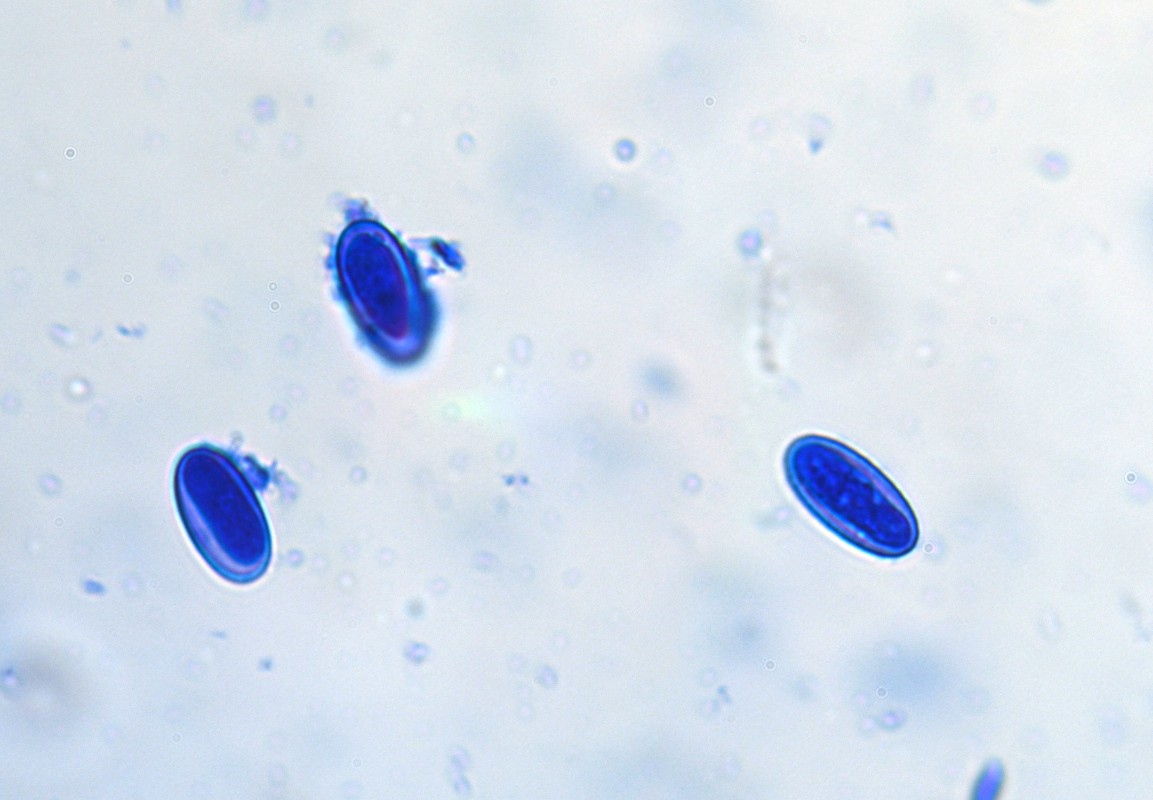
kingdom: Fungi
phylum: Ascomycota
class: Pezizomycetes
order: Pezizales
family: Pezizaceae
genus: Peziza
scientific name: Peziza repanda
